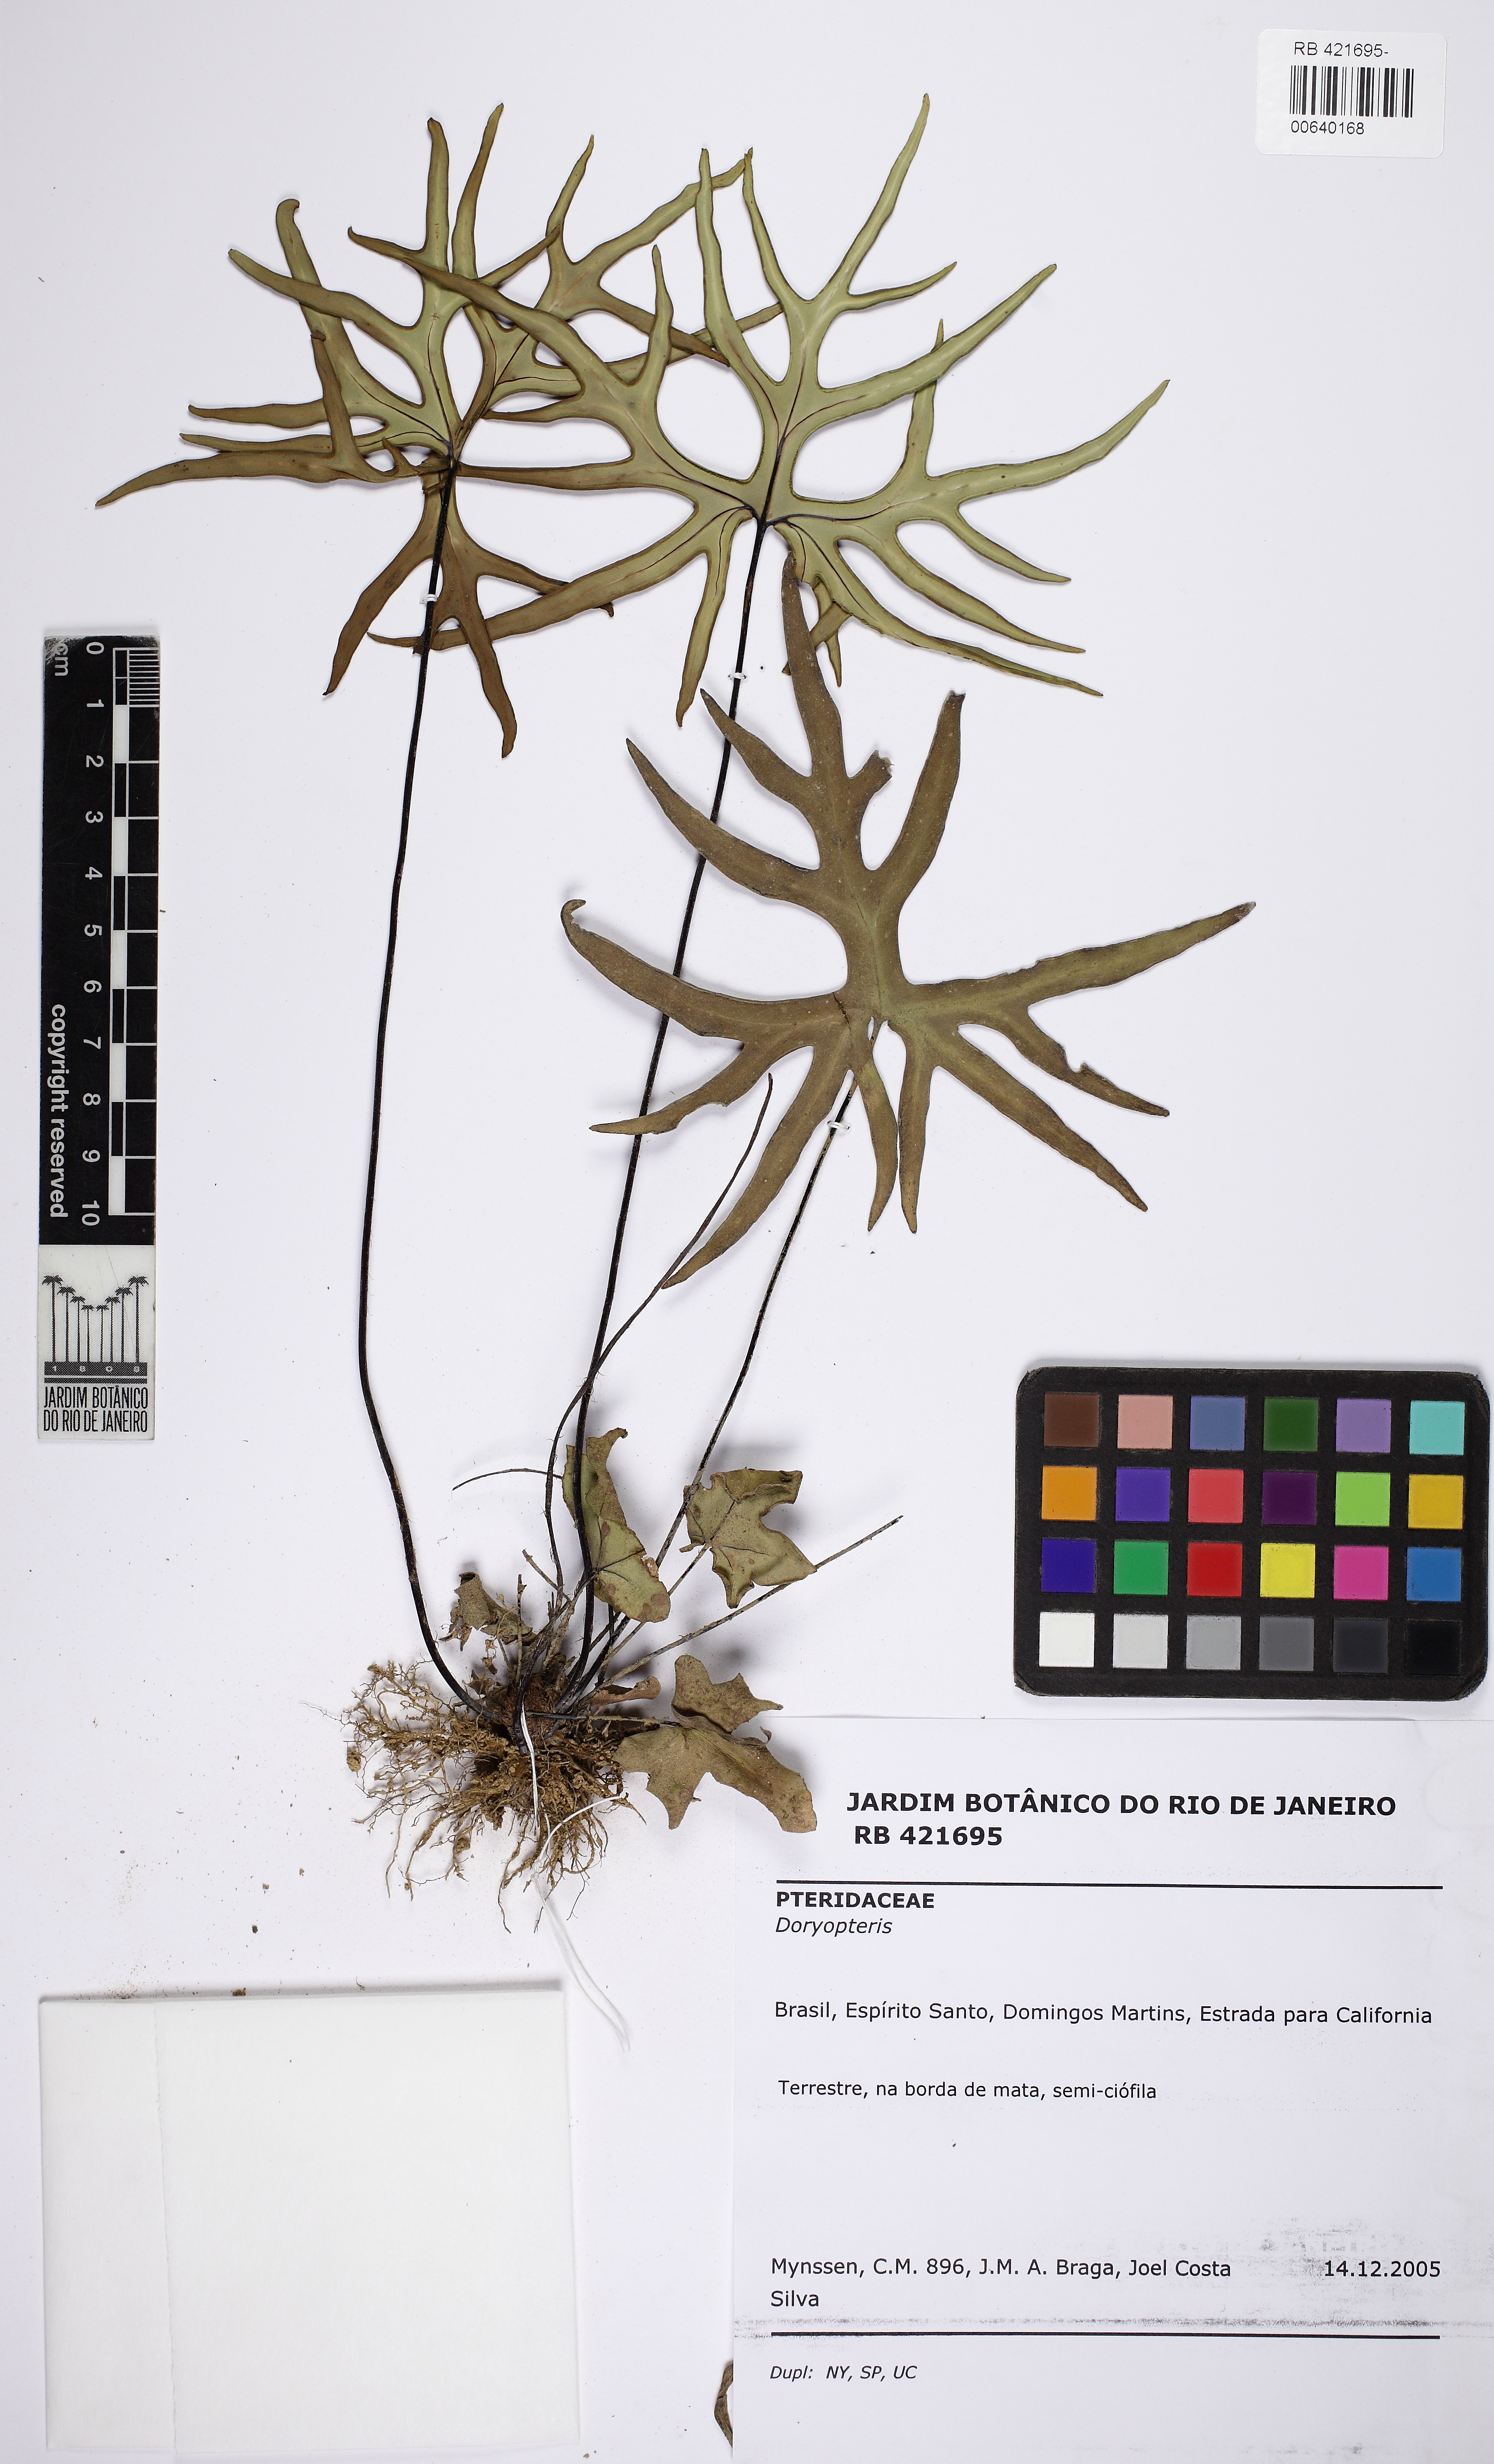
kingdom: Plantae
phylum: Tracheophyta
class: Polypodiopsida
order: Polypodiales
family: Pteridaceae
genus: Doryopteris
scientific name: Doryopteris varians
